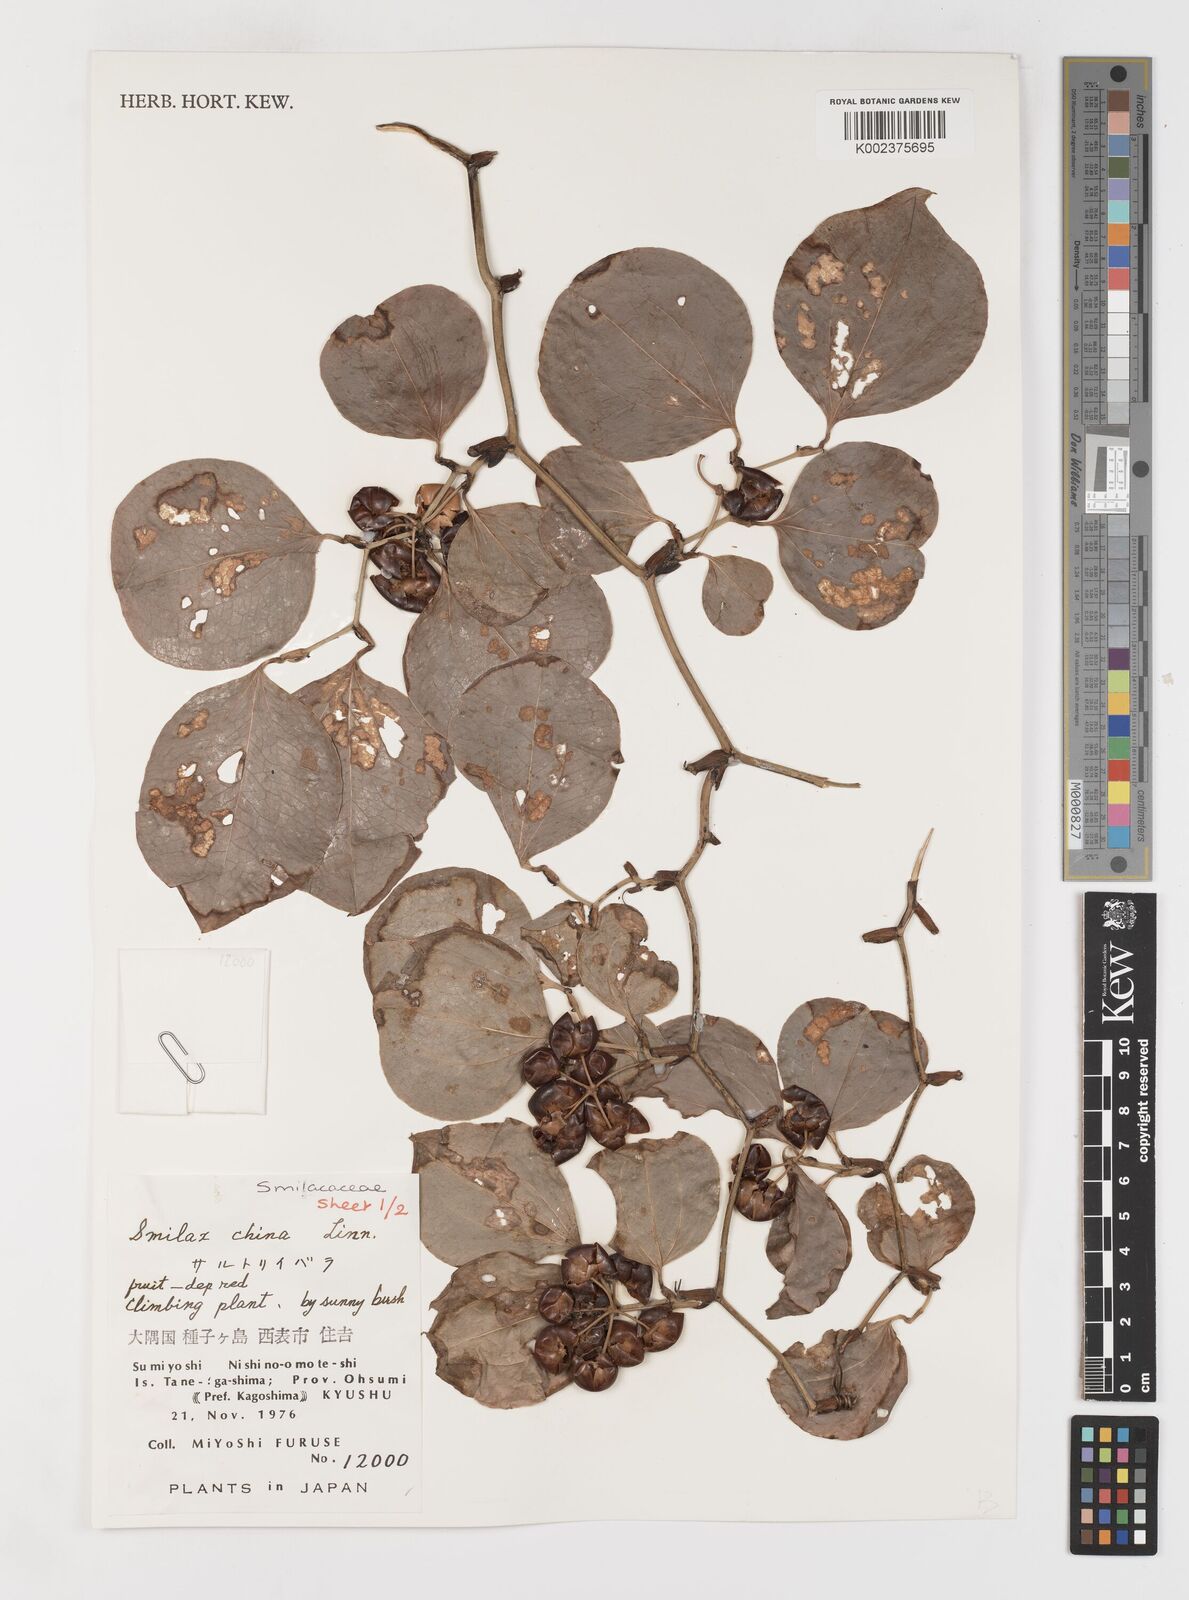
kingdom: Plantae
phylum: Tracheophyta
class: Liliopsida
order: Liliales
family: Smilacaceae
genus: Smilax
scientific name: Smilax china
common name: Chinaroot
